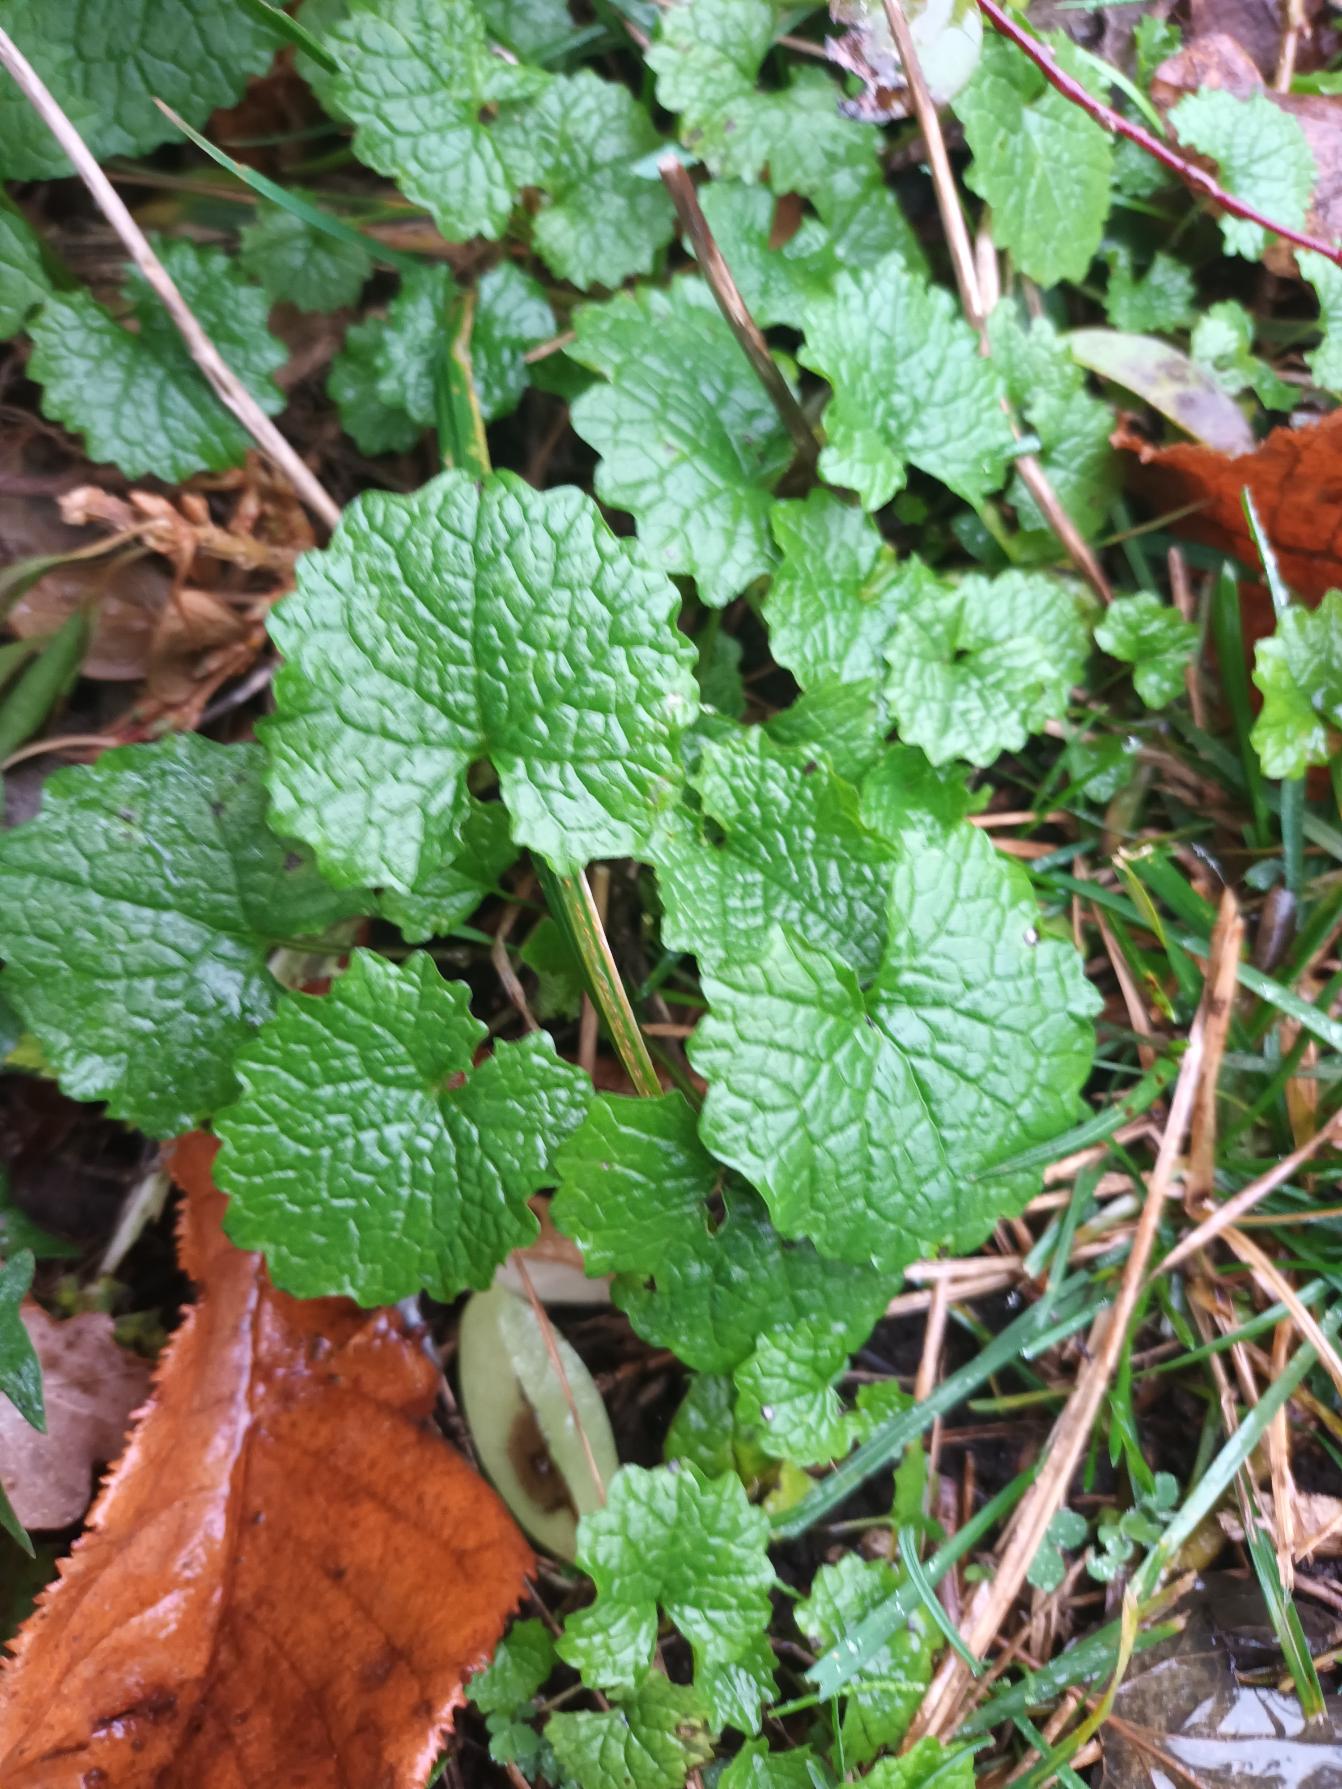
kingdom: Plantae
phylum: Tracheophyta
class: Magnoliopsida
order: Brassicales
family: Brassicaceae
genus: Alliaria
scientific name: Alliaria petiolata
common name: Løgkarse
